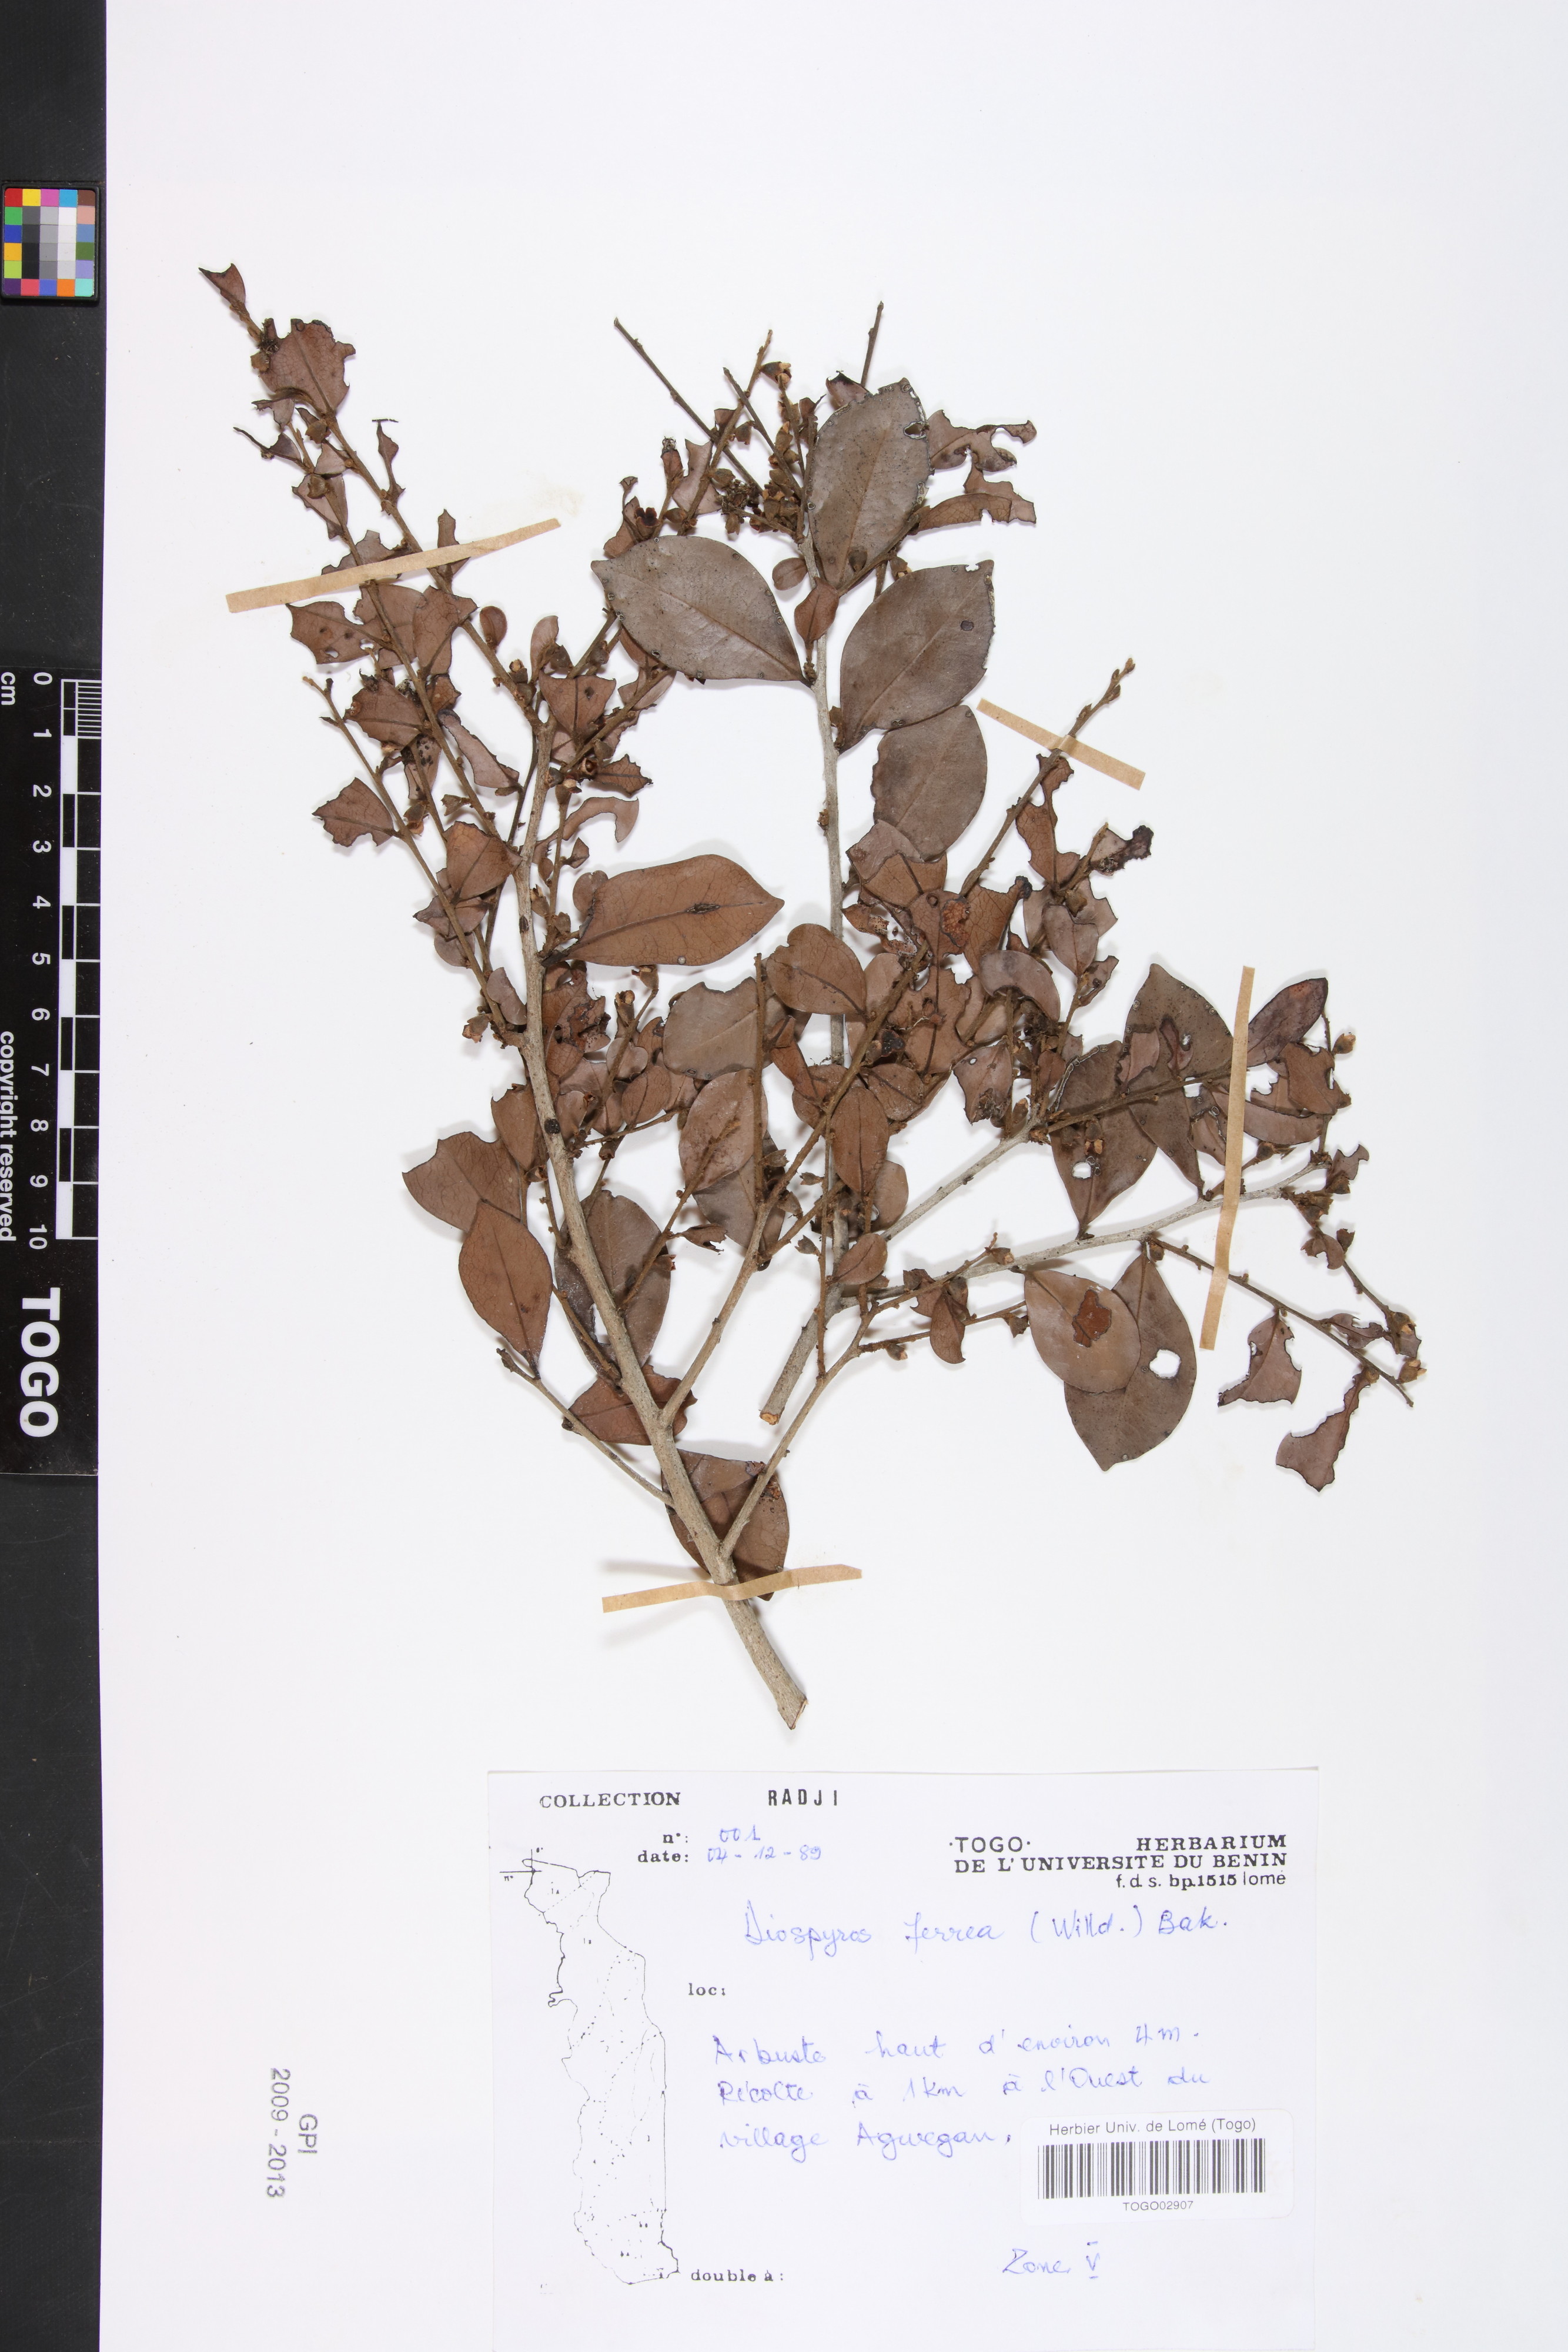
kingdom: Plantae
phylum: Tracheophyta
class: Magnoliopsida
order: Ericales
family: Ebenaceae
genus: Diospyros
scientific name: Diospyros ferrea
